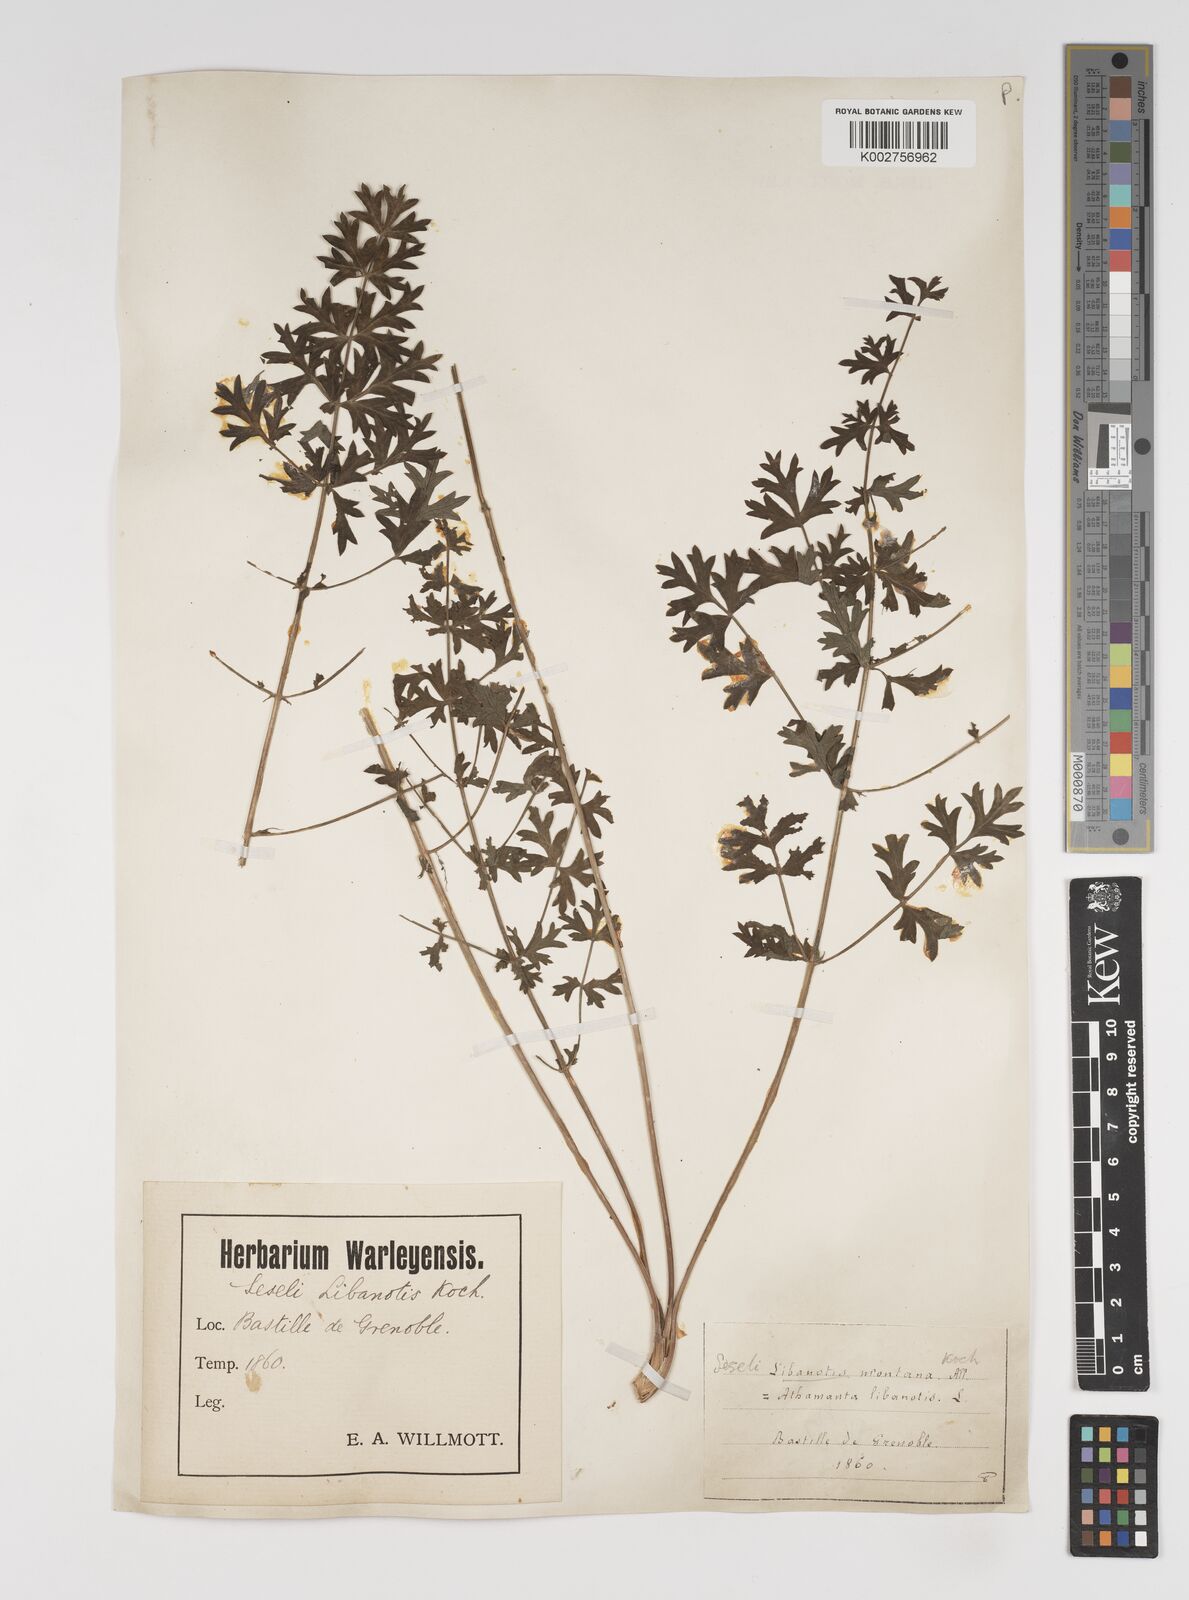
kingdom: Plantae
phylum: Tracheophyta
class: Magnoliopsida
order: Apiales
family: Apiaceae
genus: Seseli
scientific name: Seseli libanotis
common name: Mooncarrot
